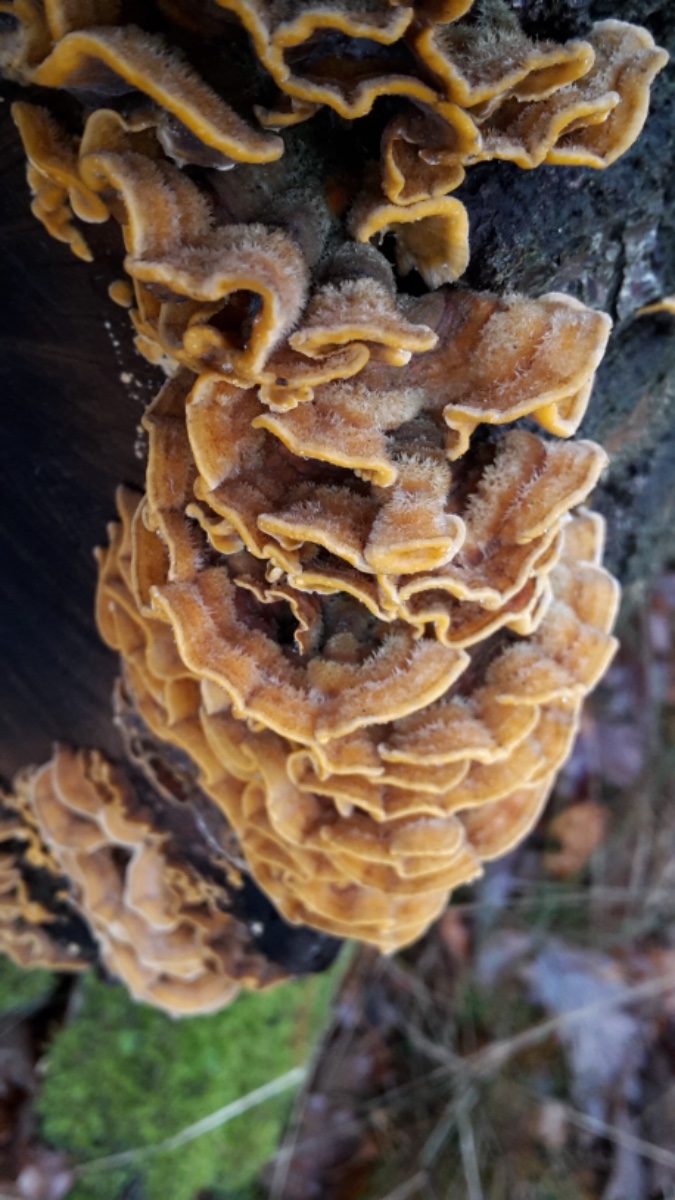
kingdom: Fungi
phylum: Basidiomycota
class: Agaricomycetes
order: Russulales
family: Stereaceae
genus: Stereum
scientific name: Stereum hirsutum
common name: håret lædersvamp
